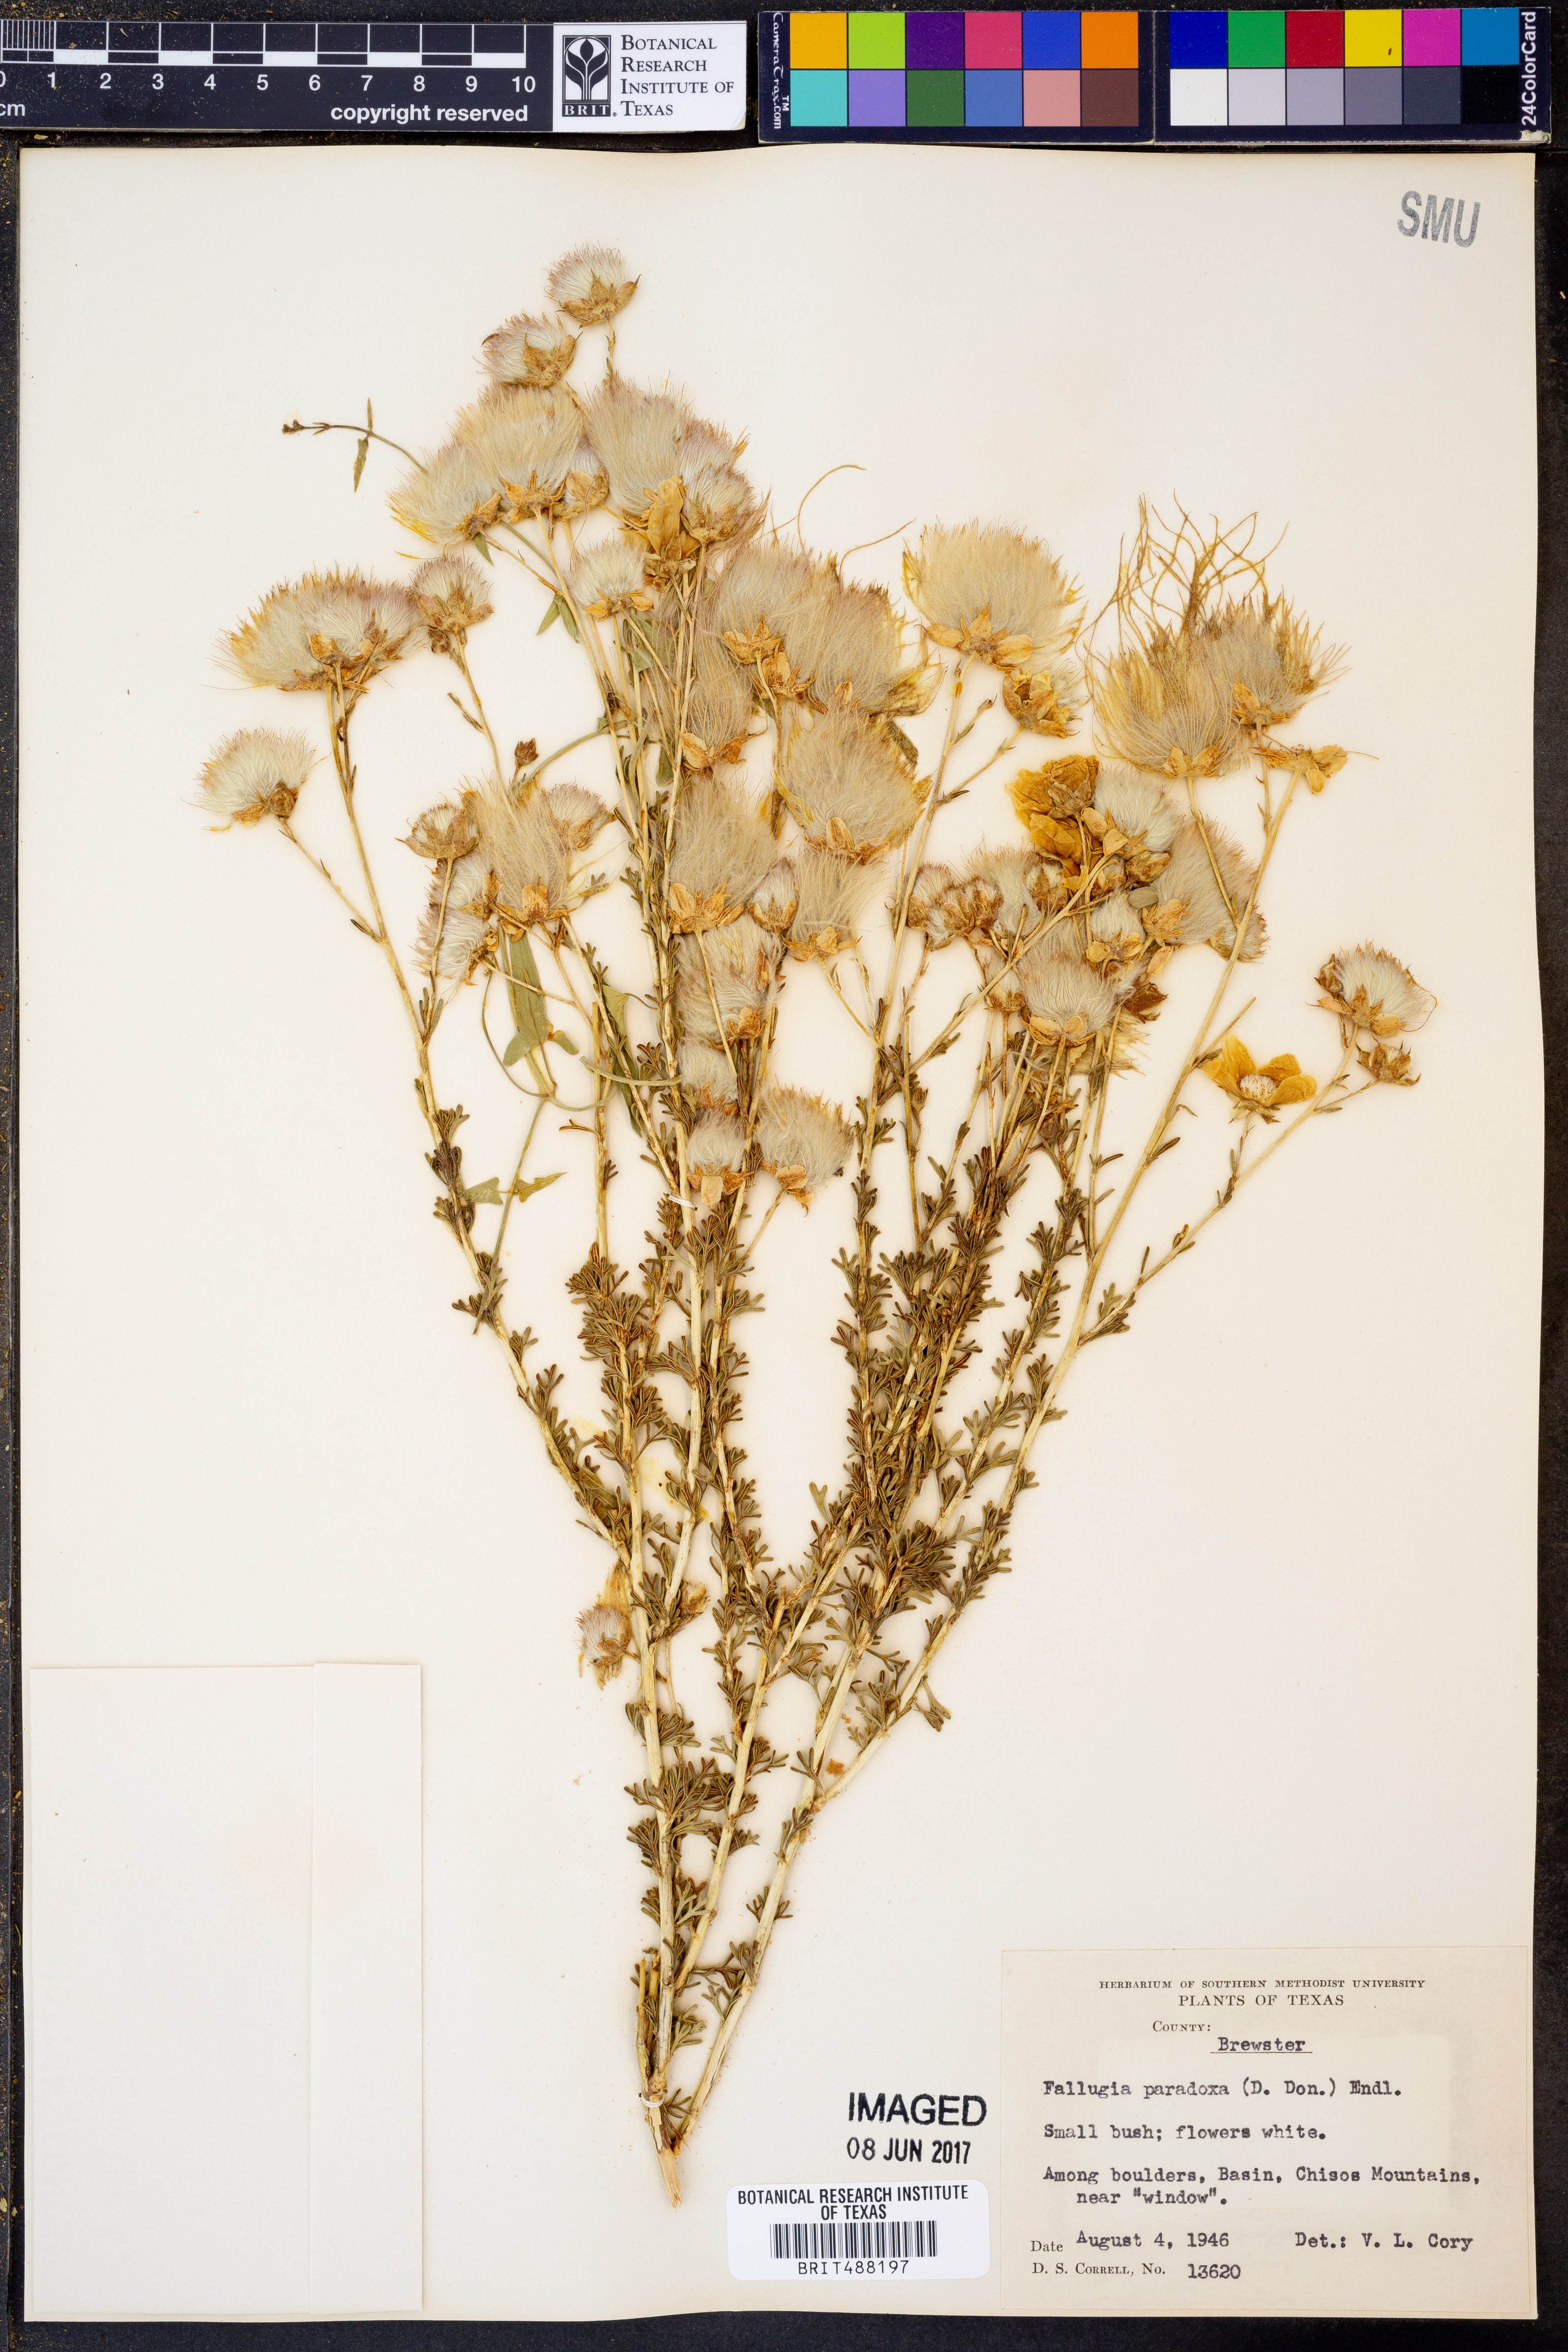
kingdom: Plantae
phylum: Tracheophyta
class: Magnoliopsida
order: Rosales
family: Rosaceae
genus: Fallugia
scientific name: Fallugia paradoxa
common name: Apache-plume
